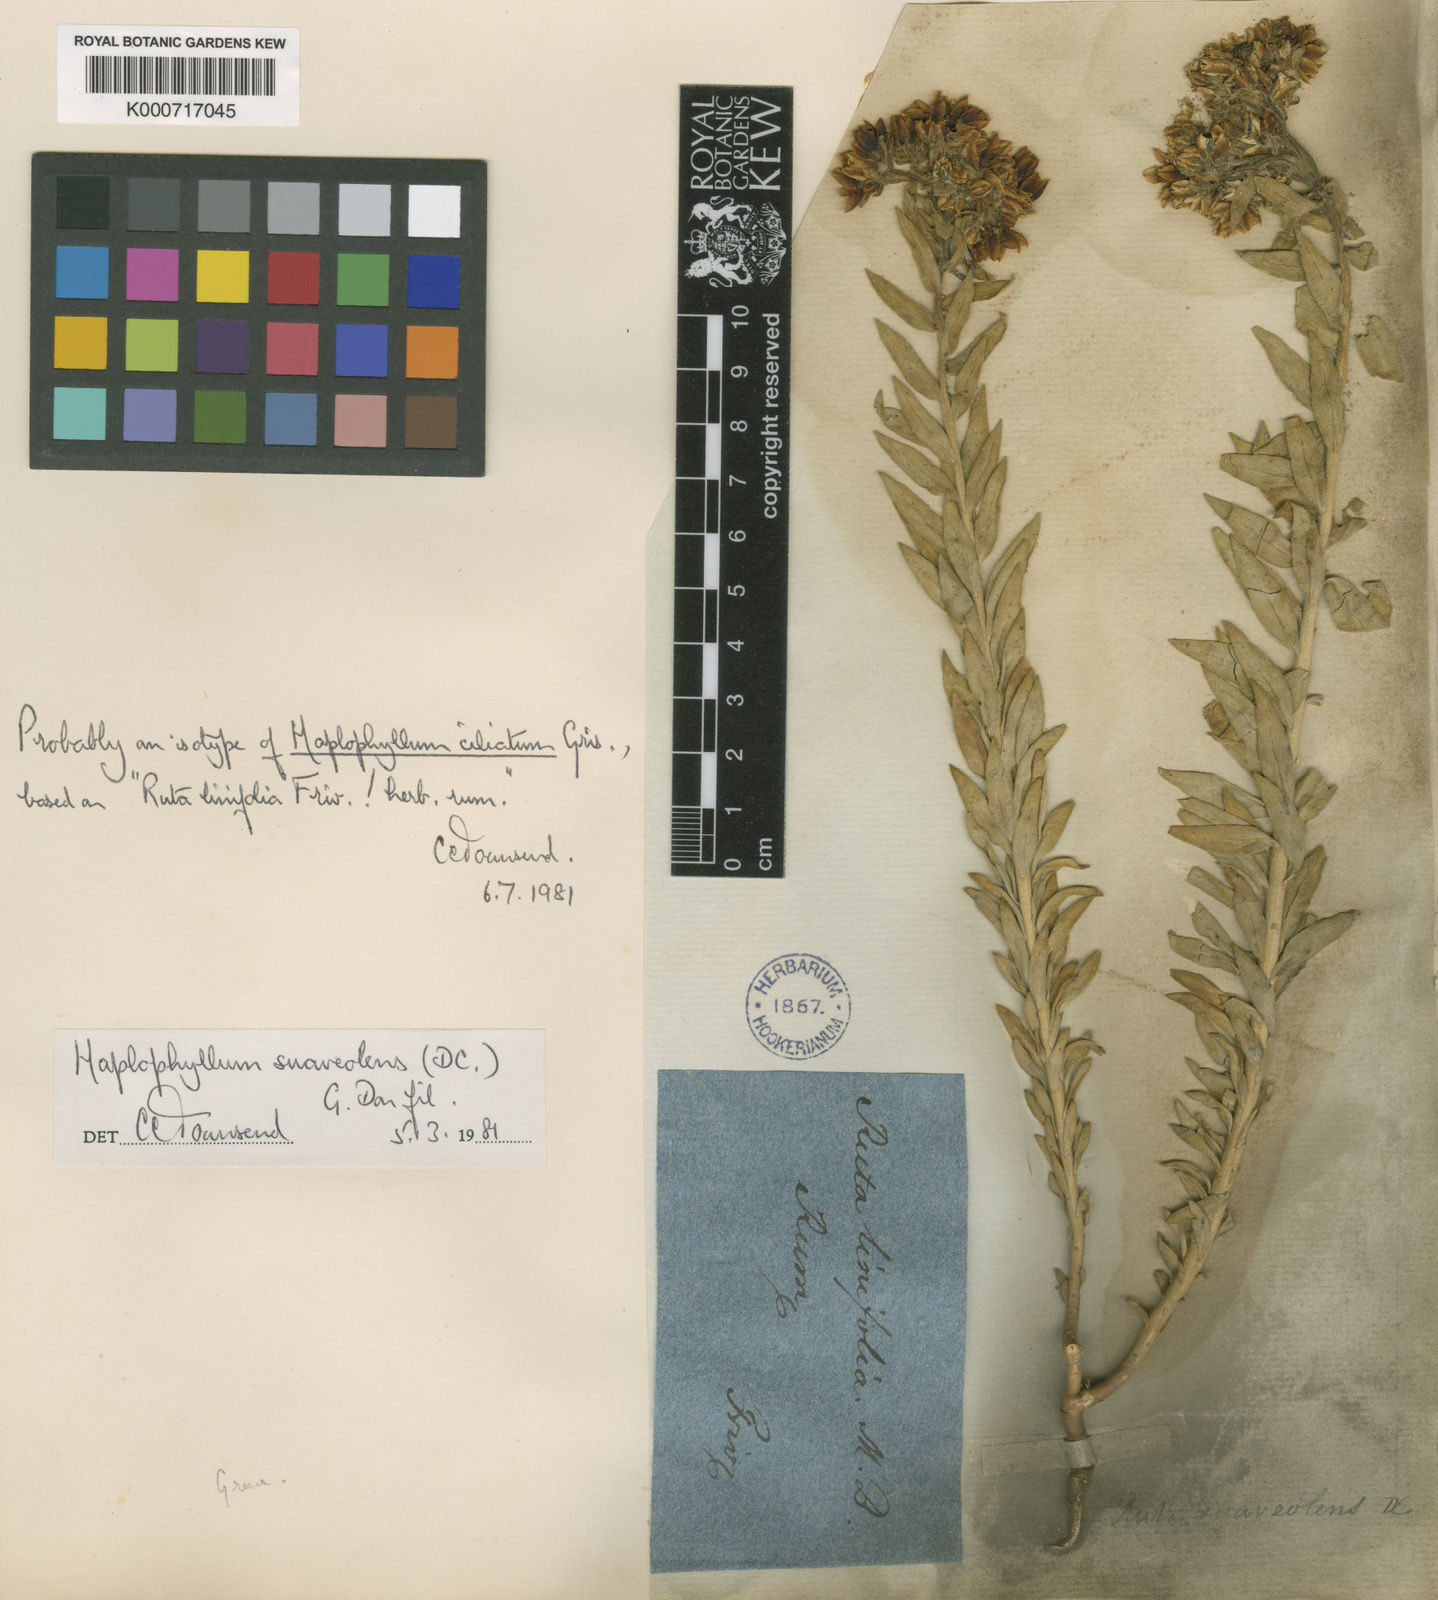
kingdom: Plantae
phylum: Tracheophyta
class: Magnoliopsida
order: Sapindales
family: Rutaceae
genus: Haplophyllum
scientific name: Haplophyllum suaveolens
